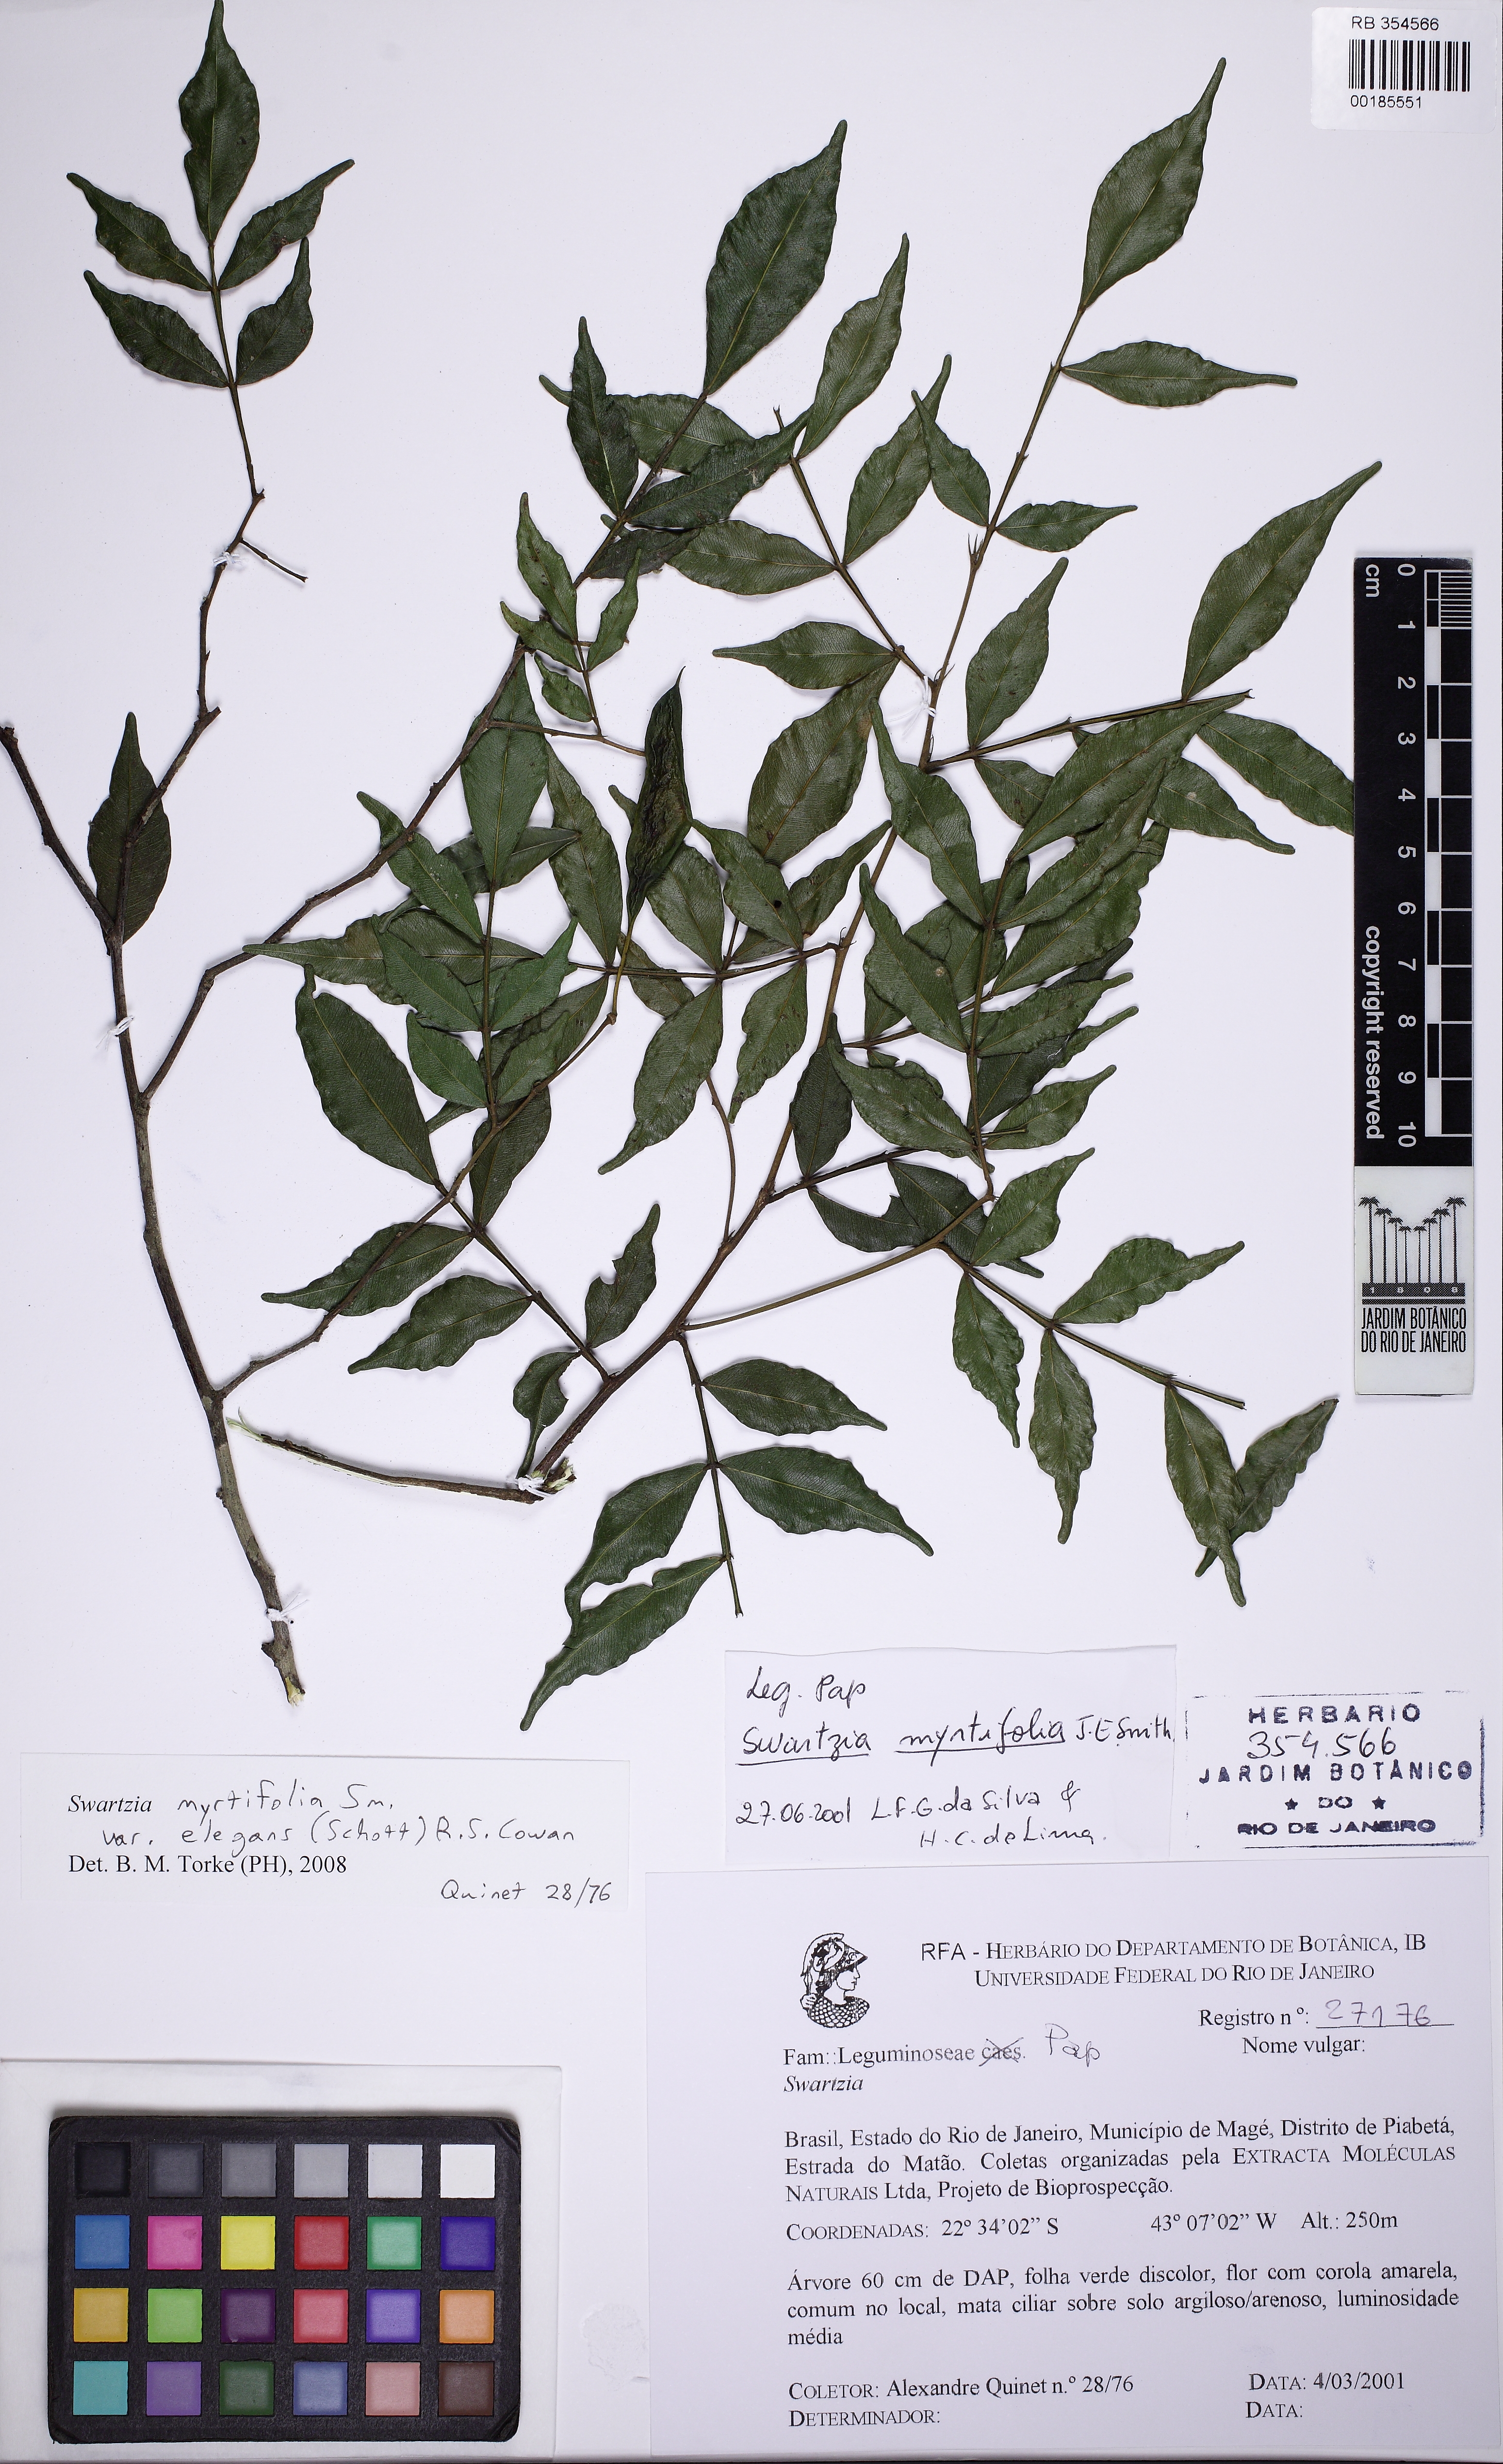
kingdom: Plantae
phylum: Tracheophyta
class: Magnoliopsida
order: Fabales
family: Fabaceae
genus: Swartzia
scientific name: Swartzia myrtifolia
